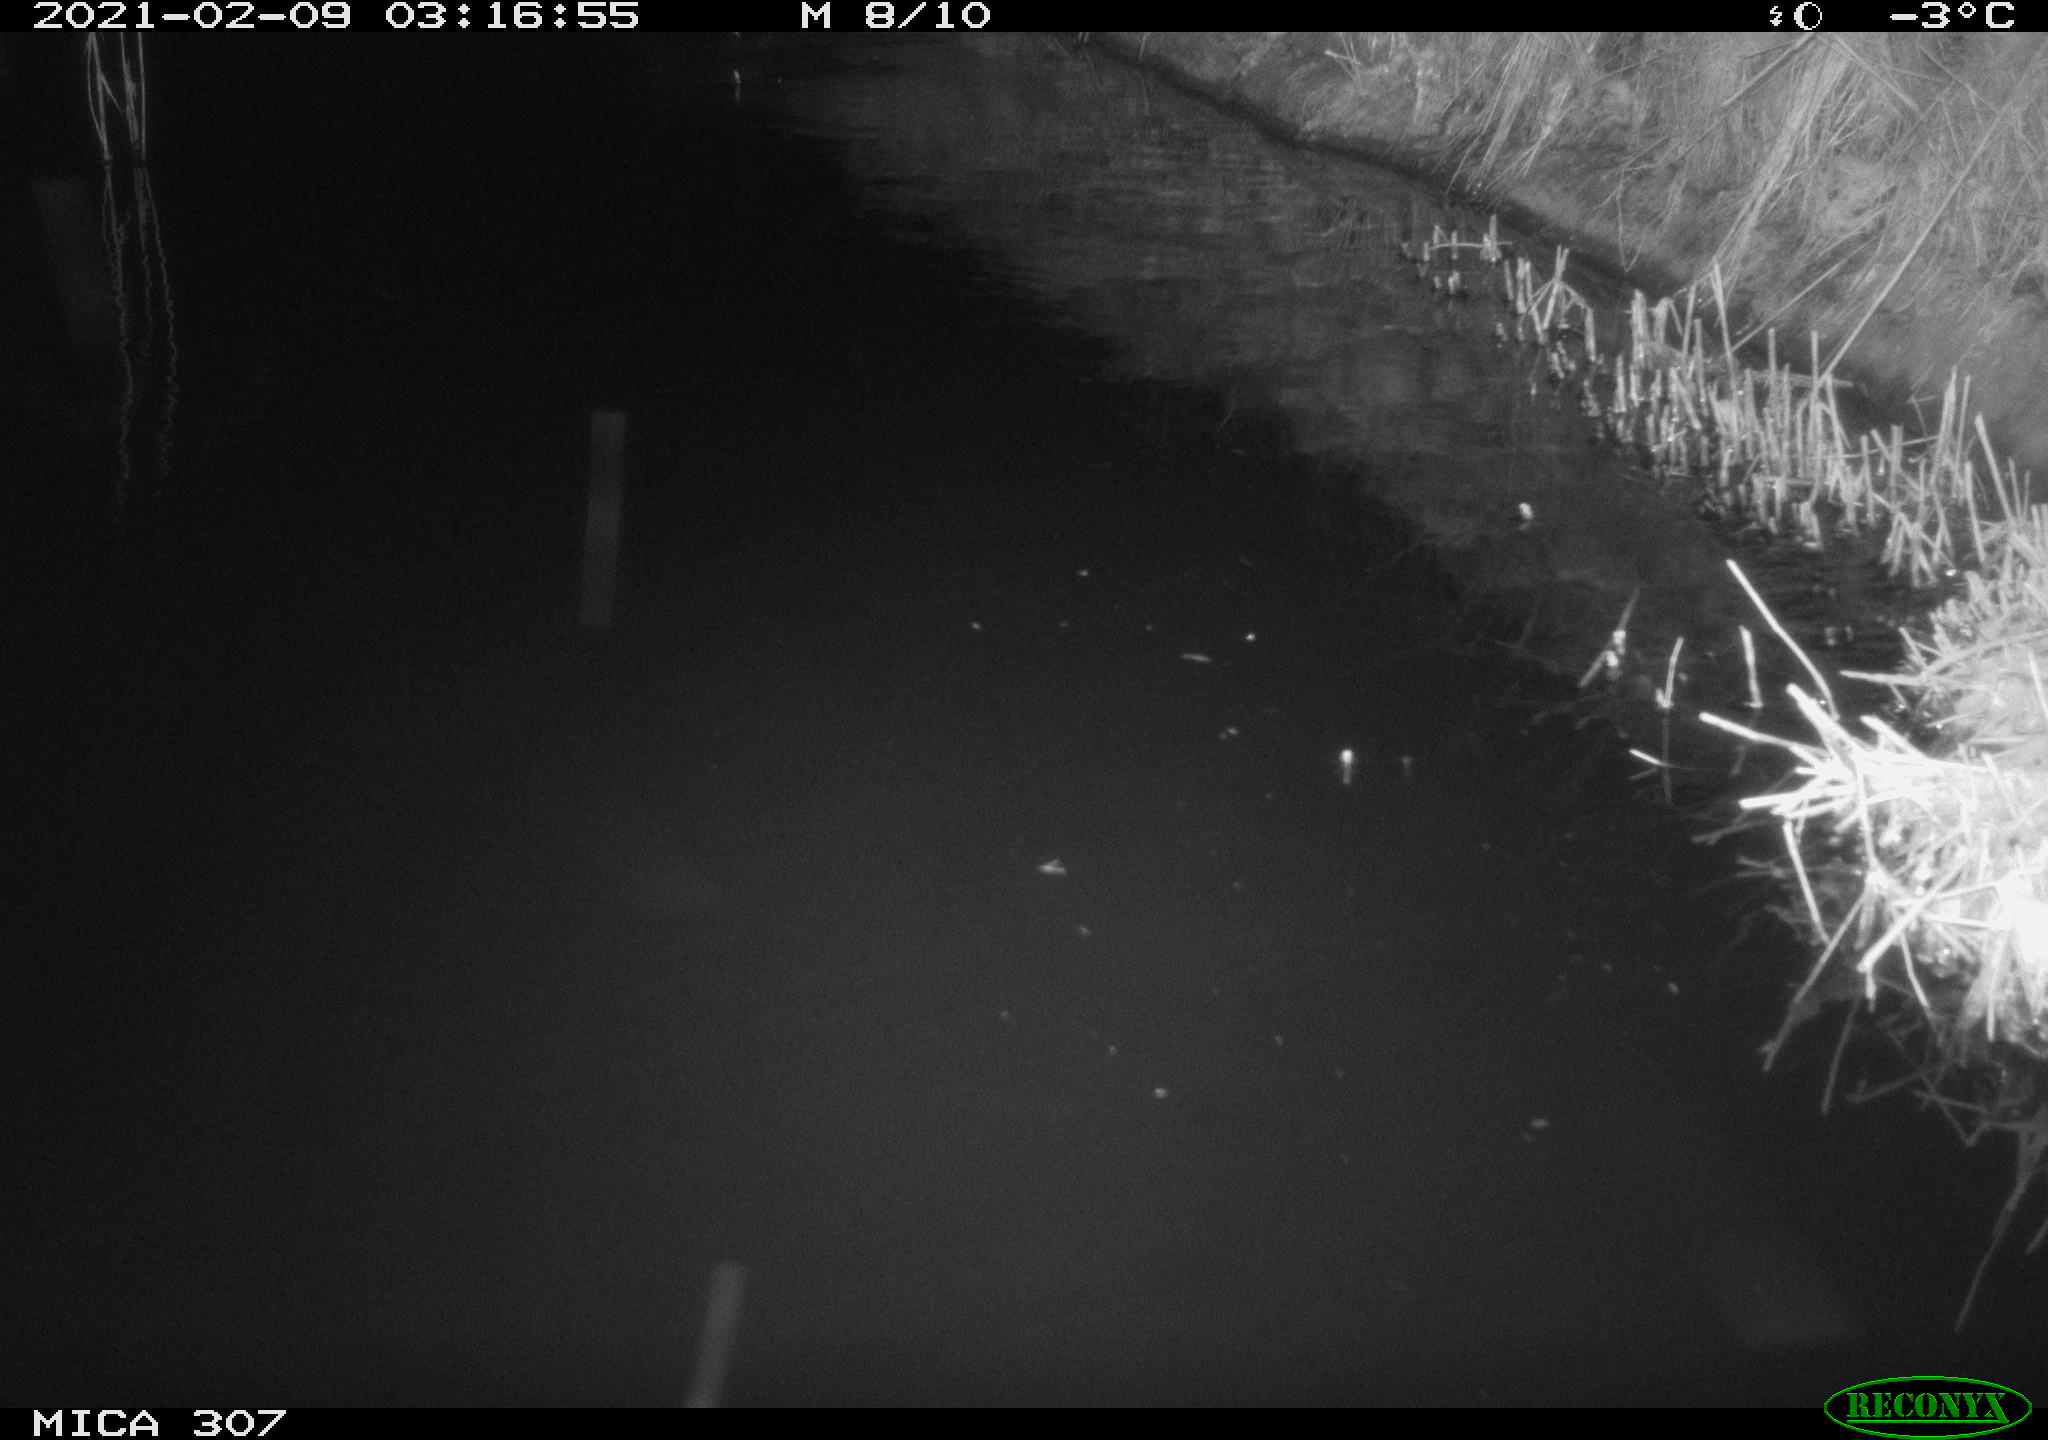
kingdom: Animalia
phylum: Chordata
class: Mammalia
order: Rodentia
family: Muridae
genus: Rattus
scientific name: Rattus norvegicus
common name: Brown rat
